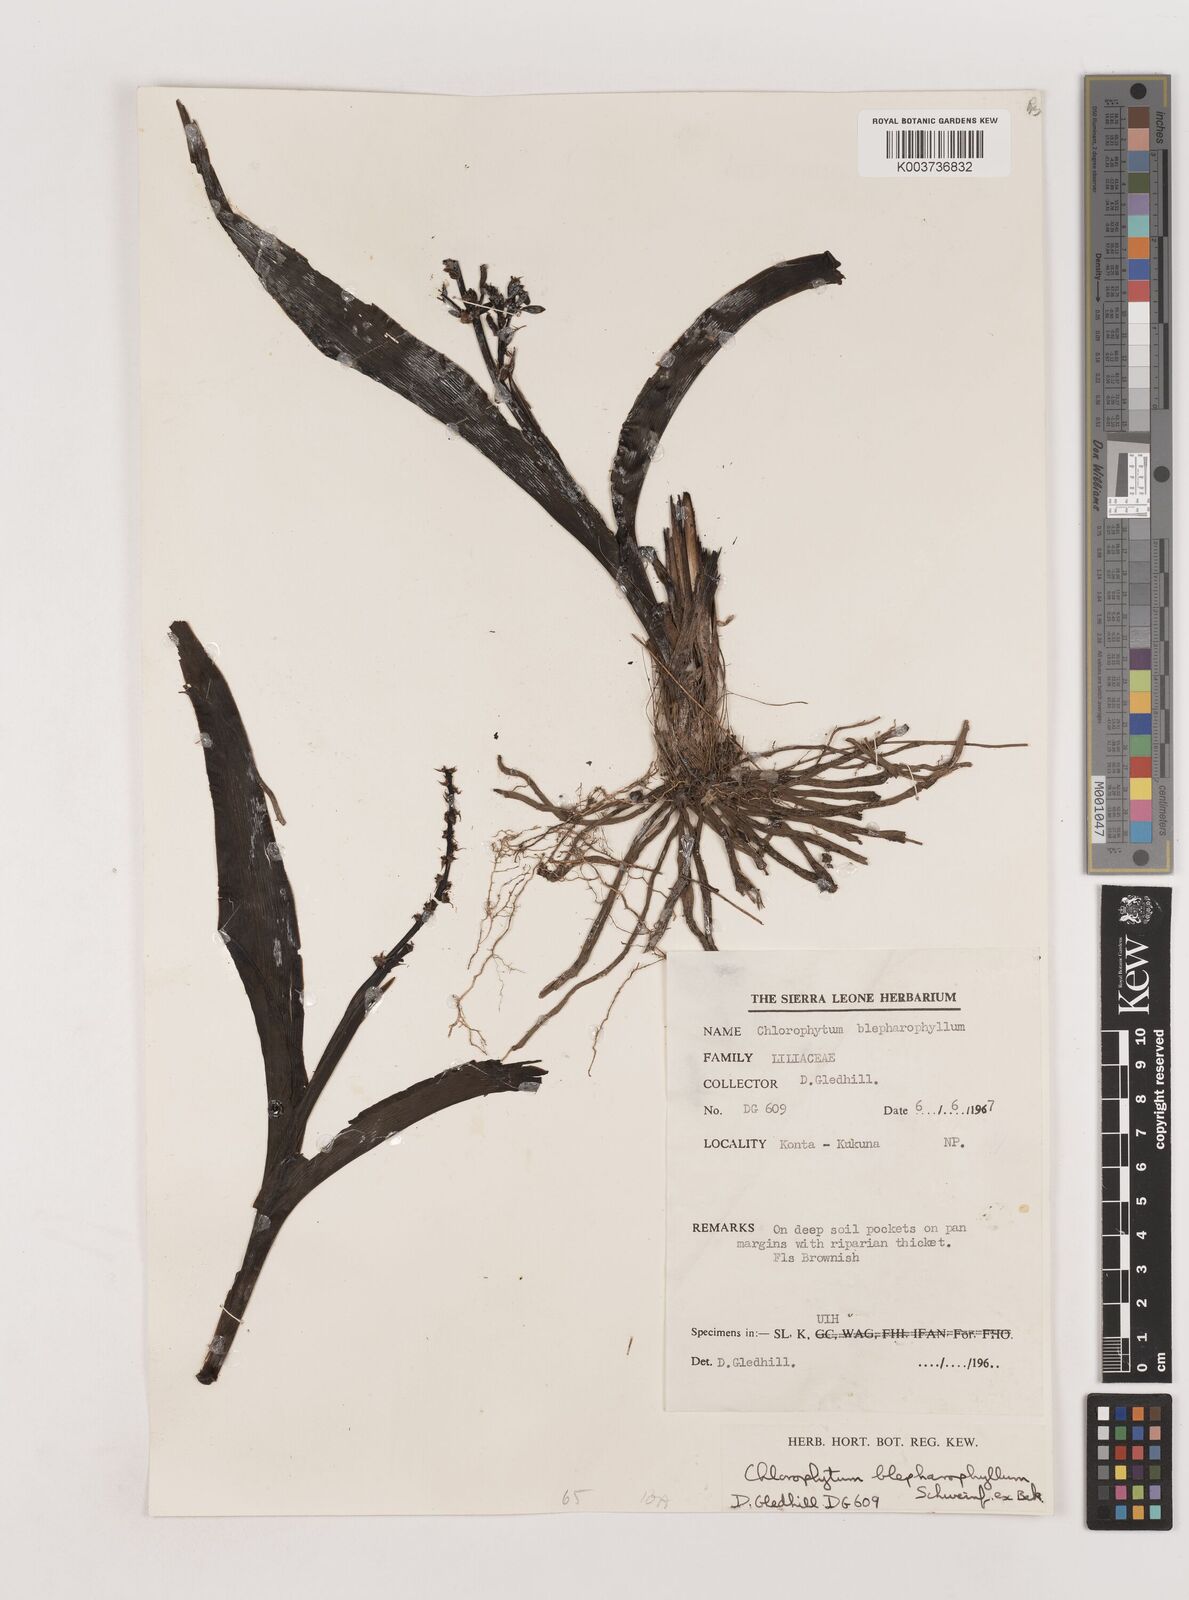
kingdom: Plantae
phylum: Tracheophyta
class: Liliopsida
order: Asparagales
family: Asparagaceae
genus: Chlorophytum
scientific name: Chlorophytum blepharophyllum
